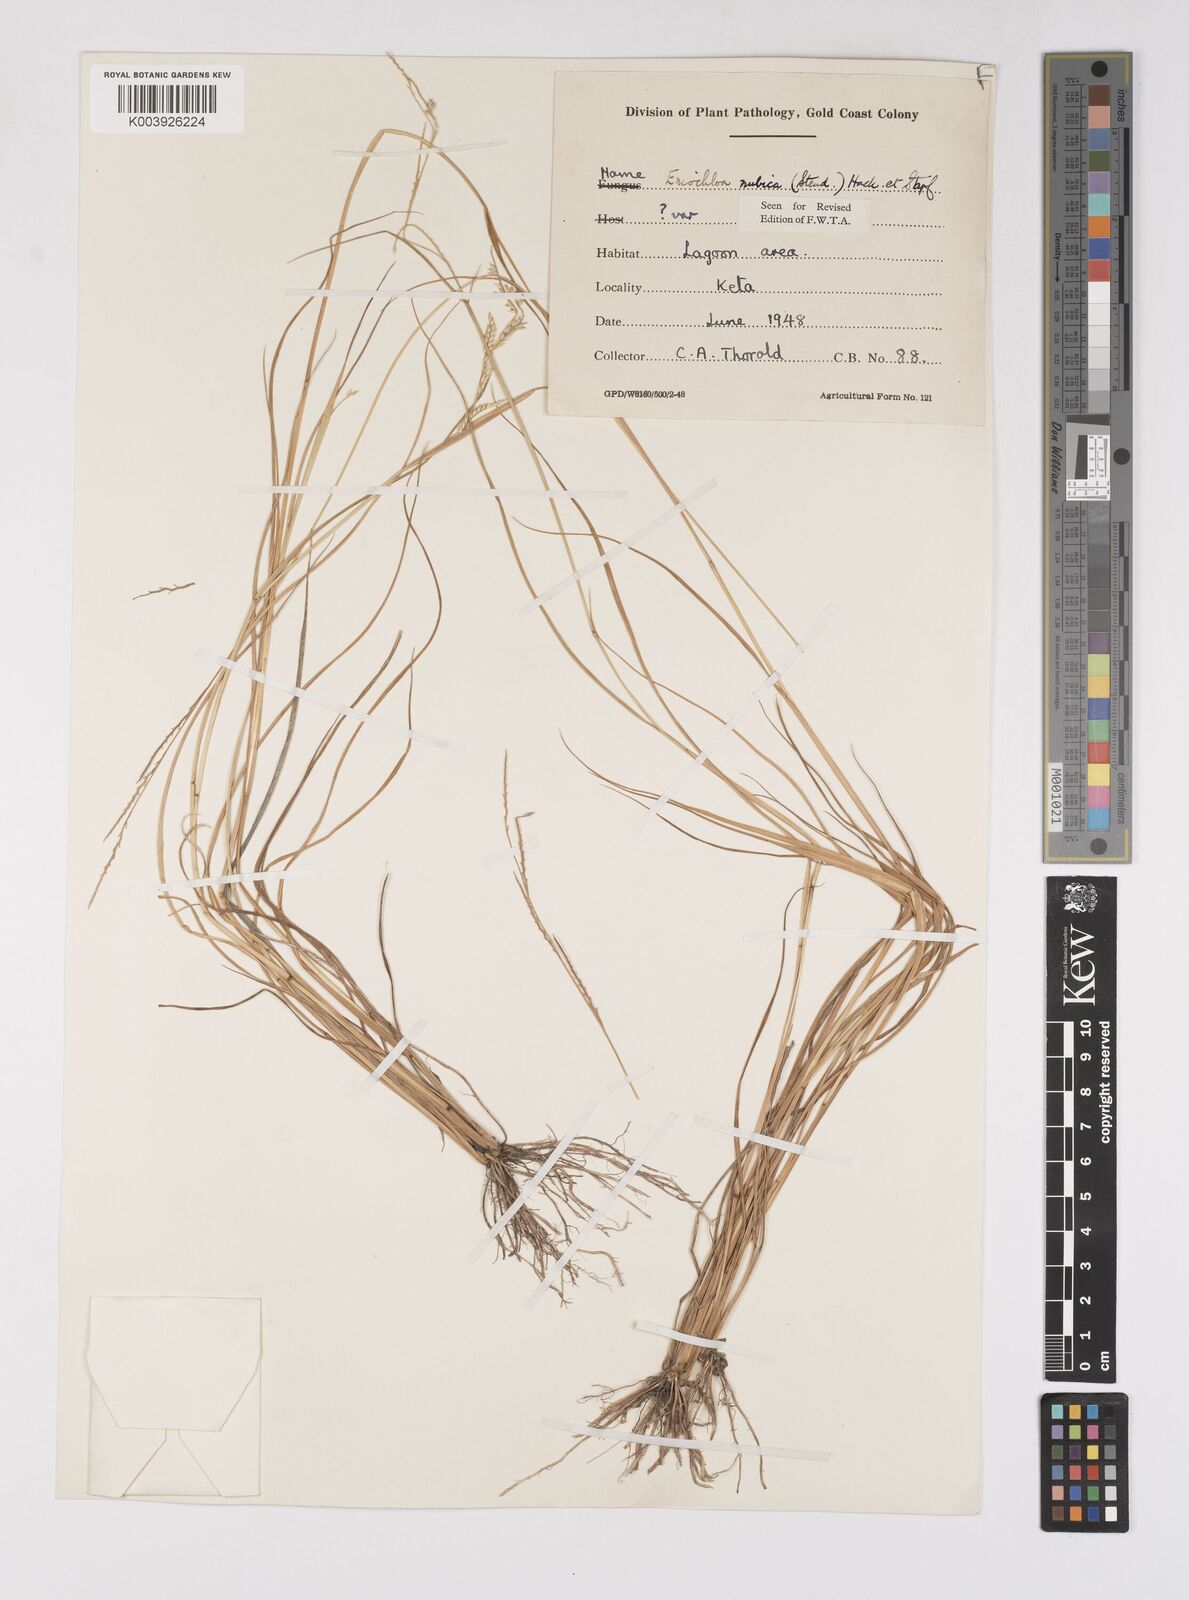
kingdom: Plantae
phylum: Tracheophyta
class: Liliopsida
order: Poales
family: Poaceae
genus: Eriochloa
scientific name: Eriochloa barbatus
